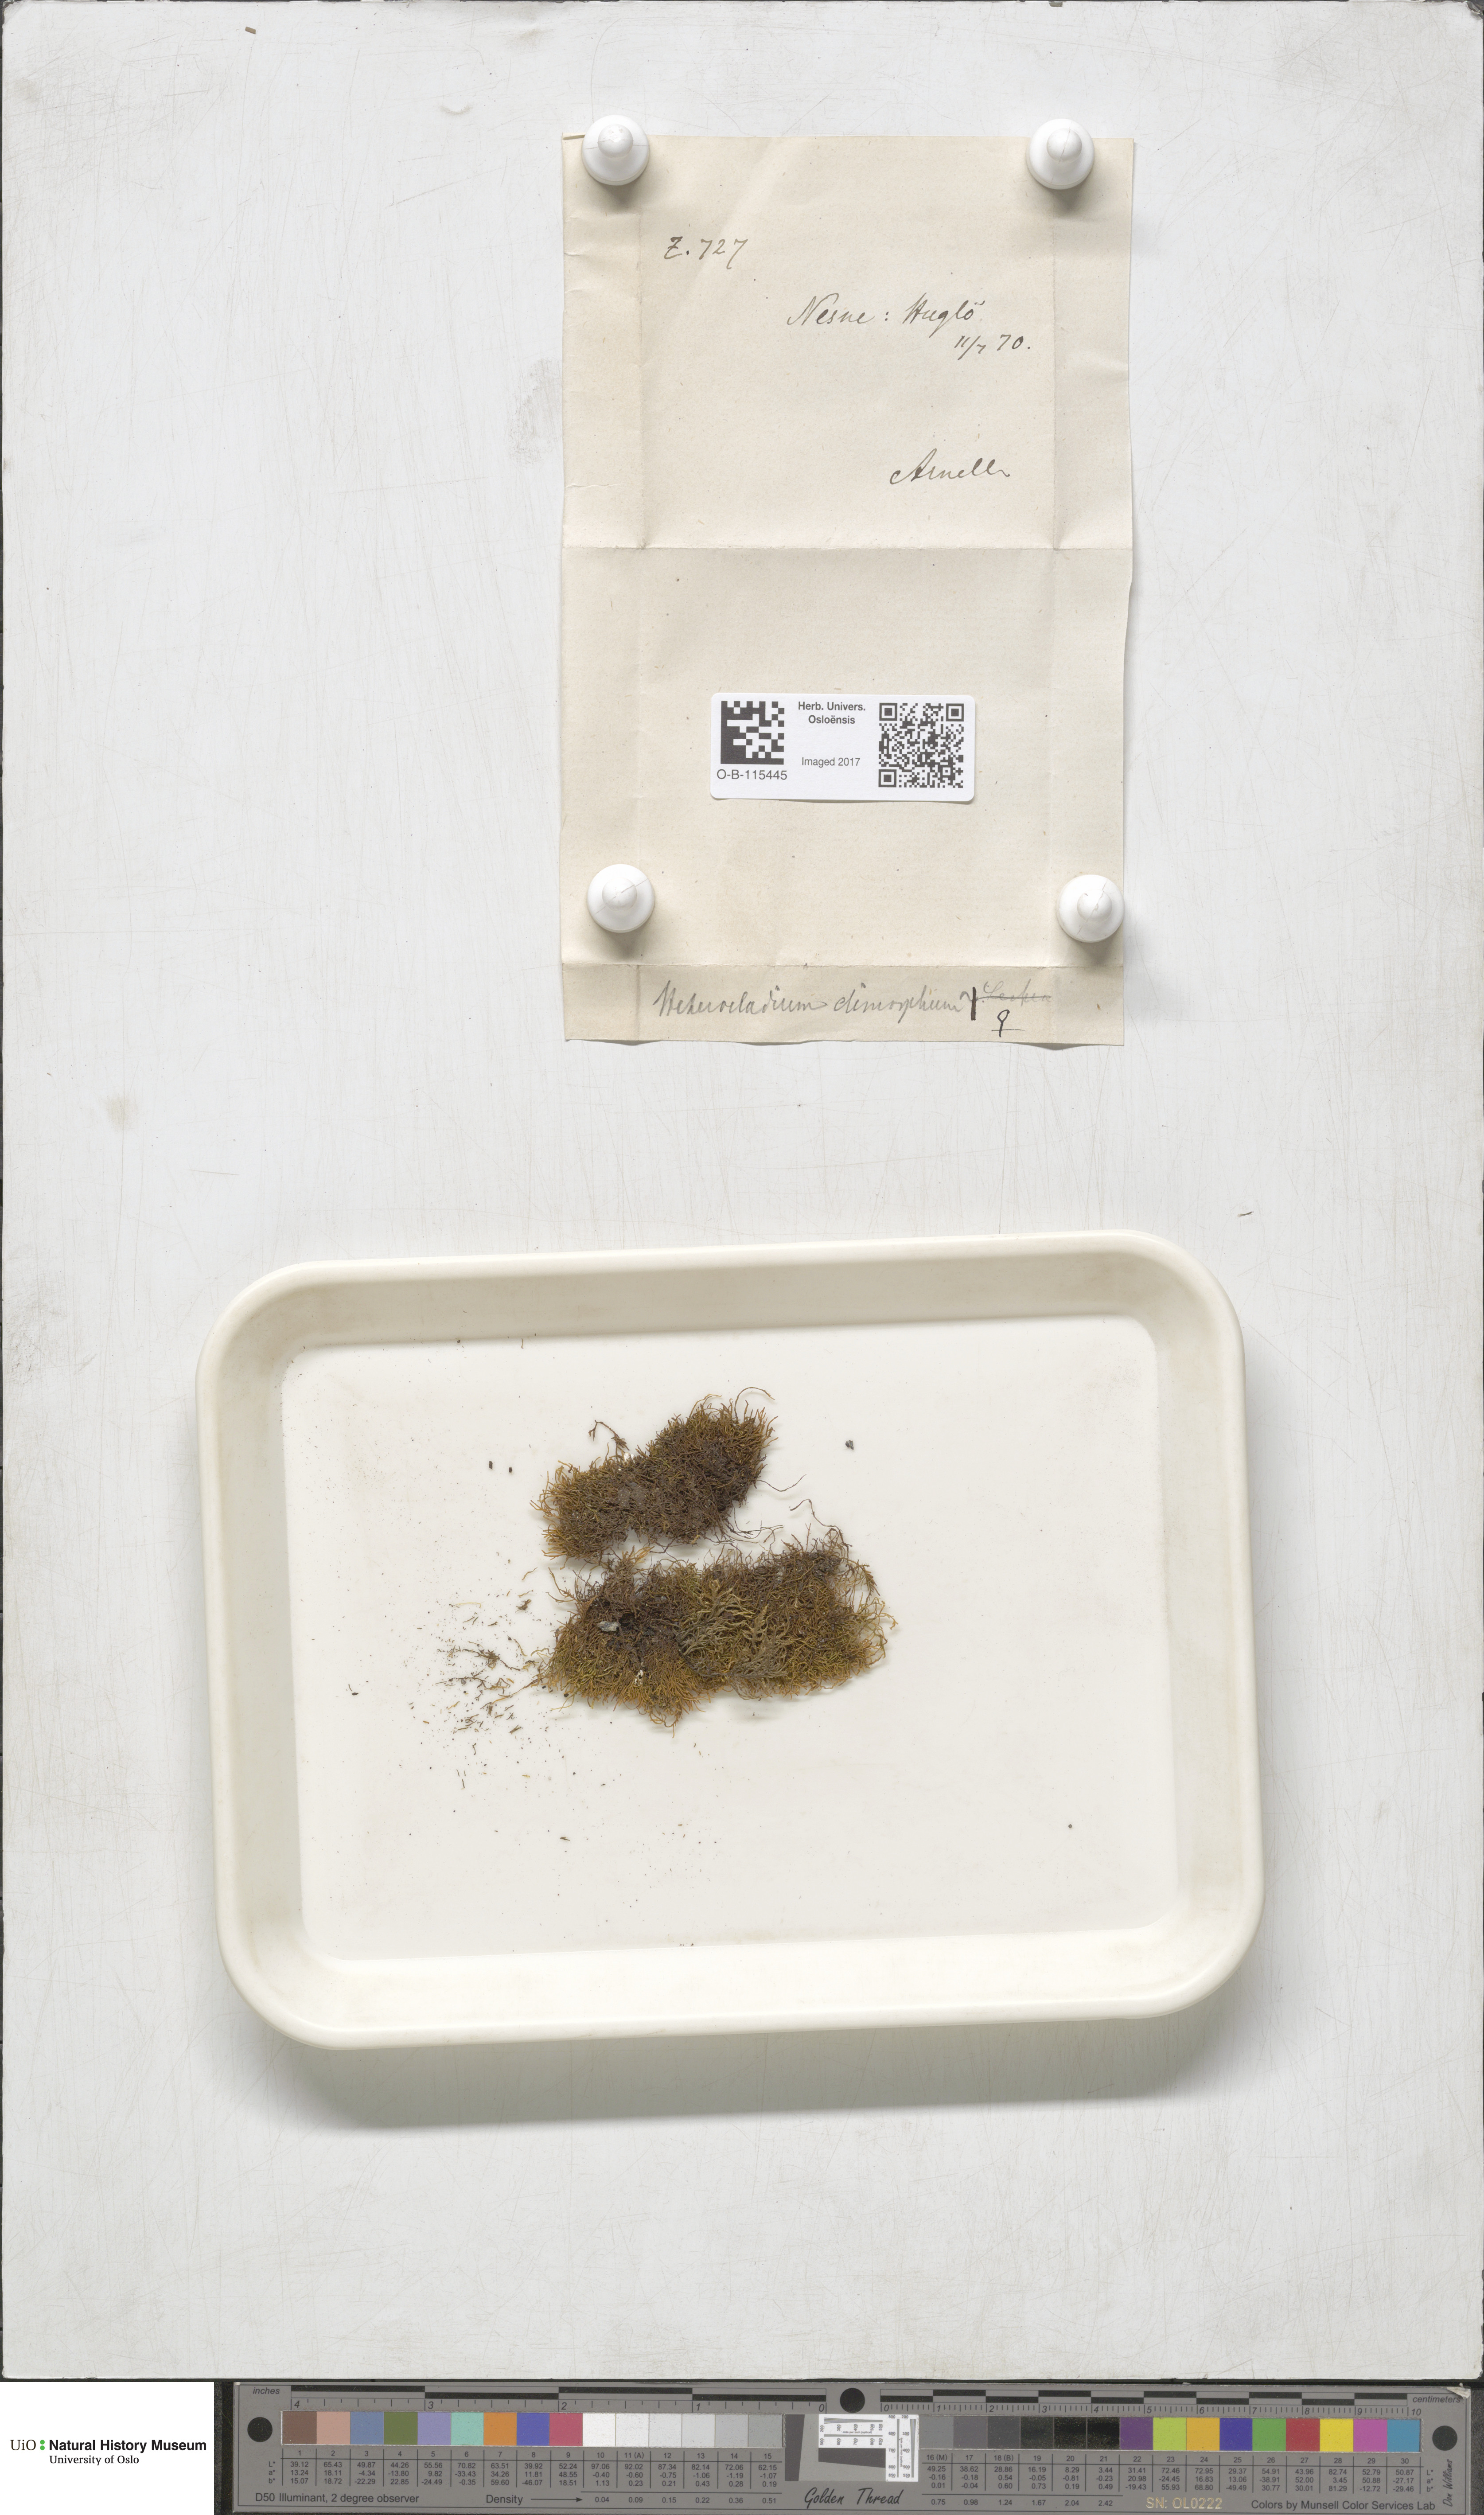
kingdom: Plantae
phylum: Bryophyta
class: Bryopsida
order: Hypnales
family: Heterocladiellaceae
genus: Heterocladiella
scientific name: Heterocladiella dimorpha
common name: Dimorphous tamarisk-moss
